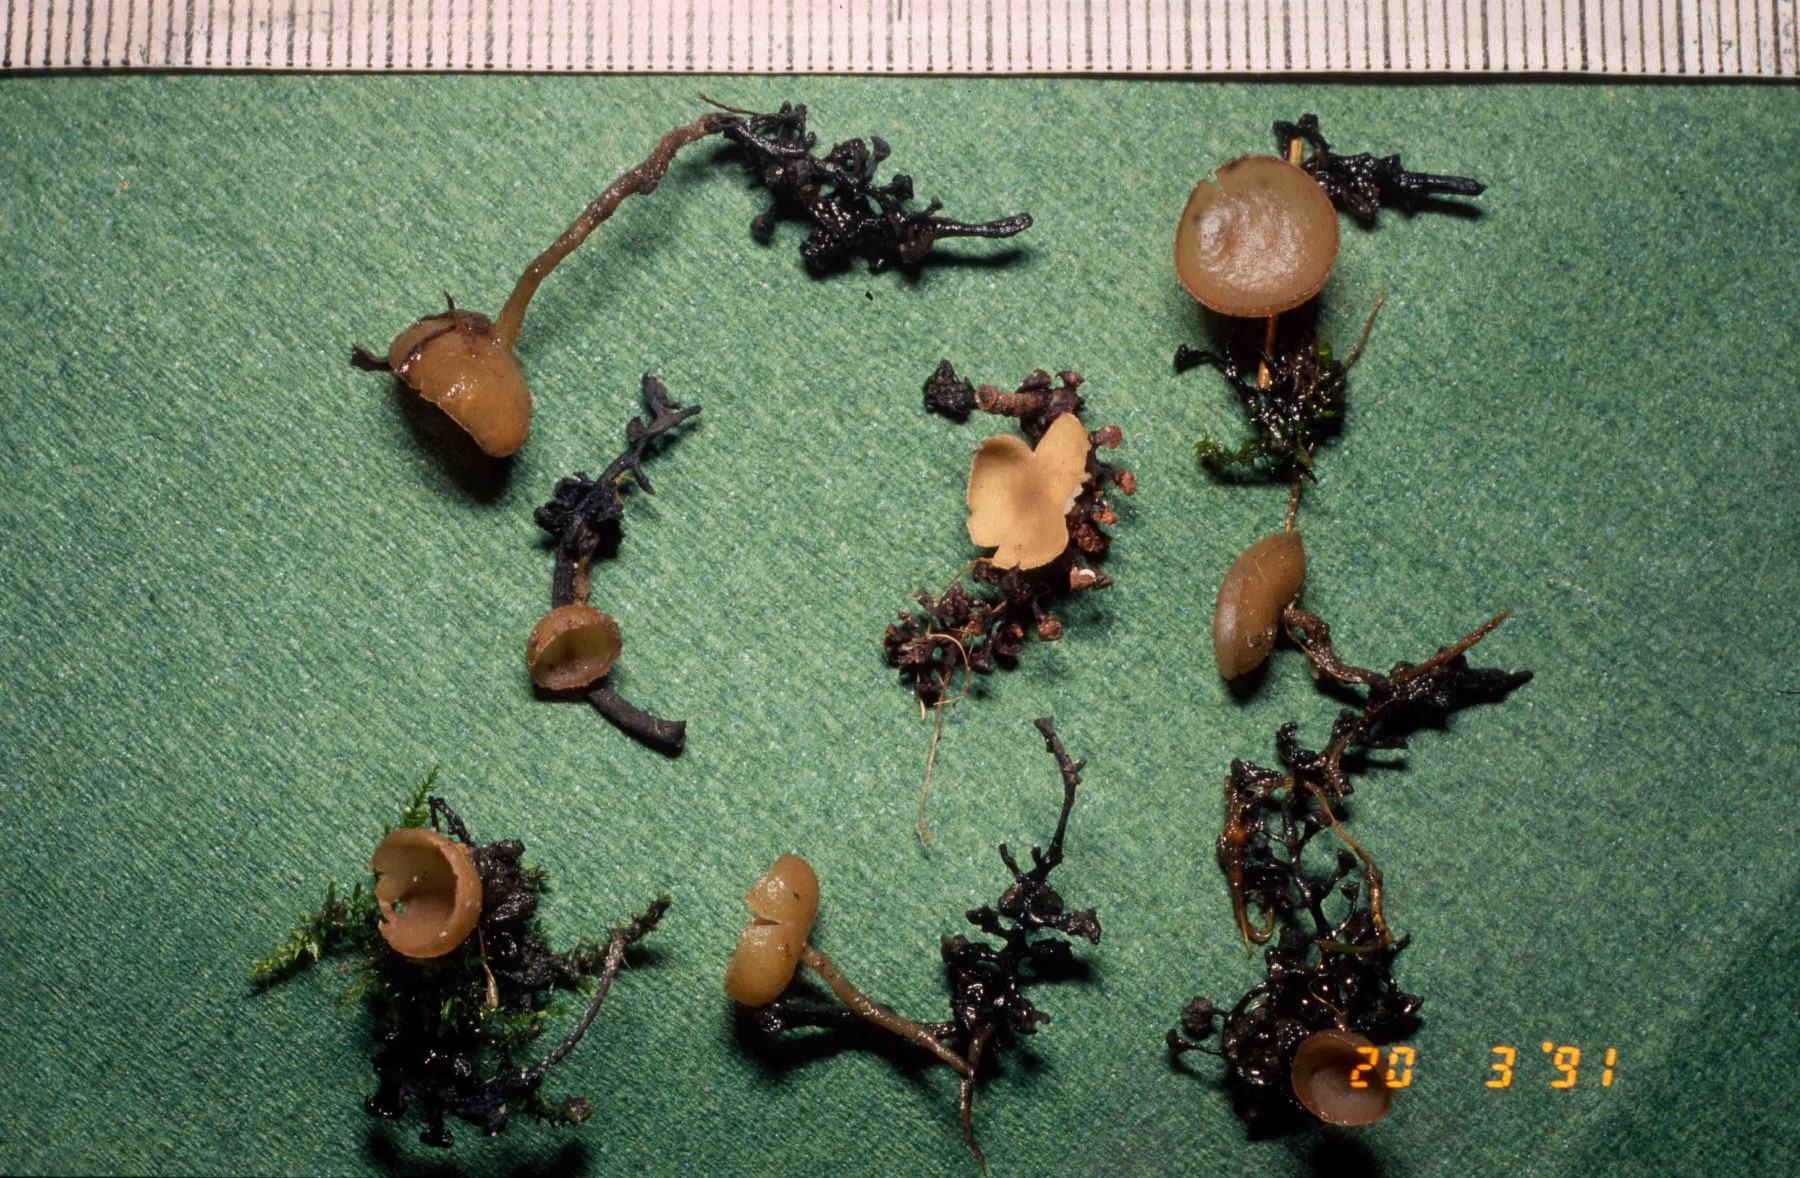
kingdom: Fungi
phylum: Ascomycota
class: Leotiomycetes
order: Helotiales
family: Sclerotiniaceae
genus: Ciboria
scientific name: Ciboria amentacea
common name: ellerakle-knoldskive
